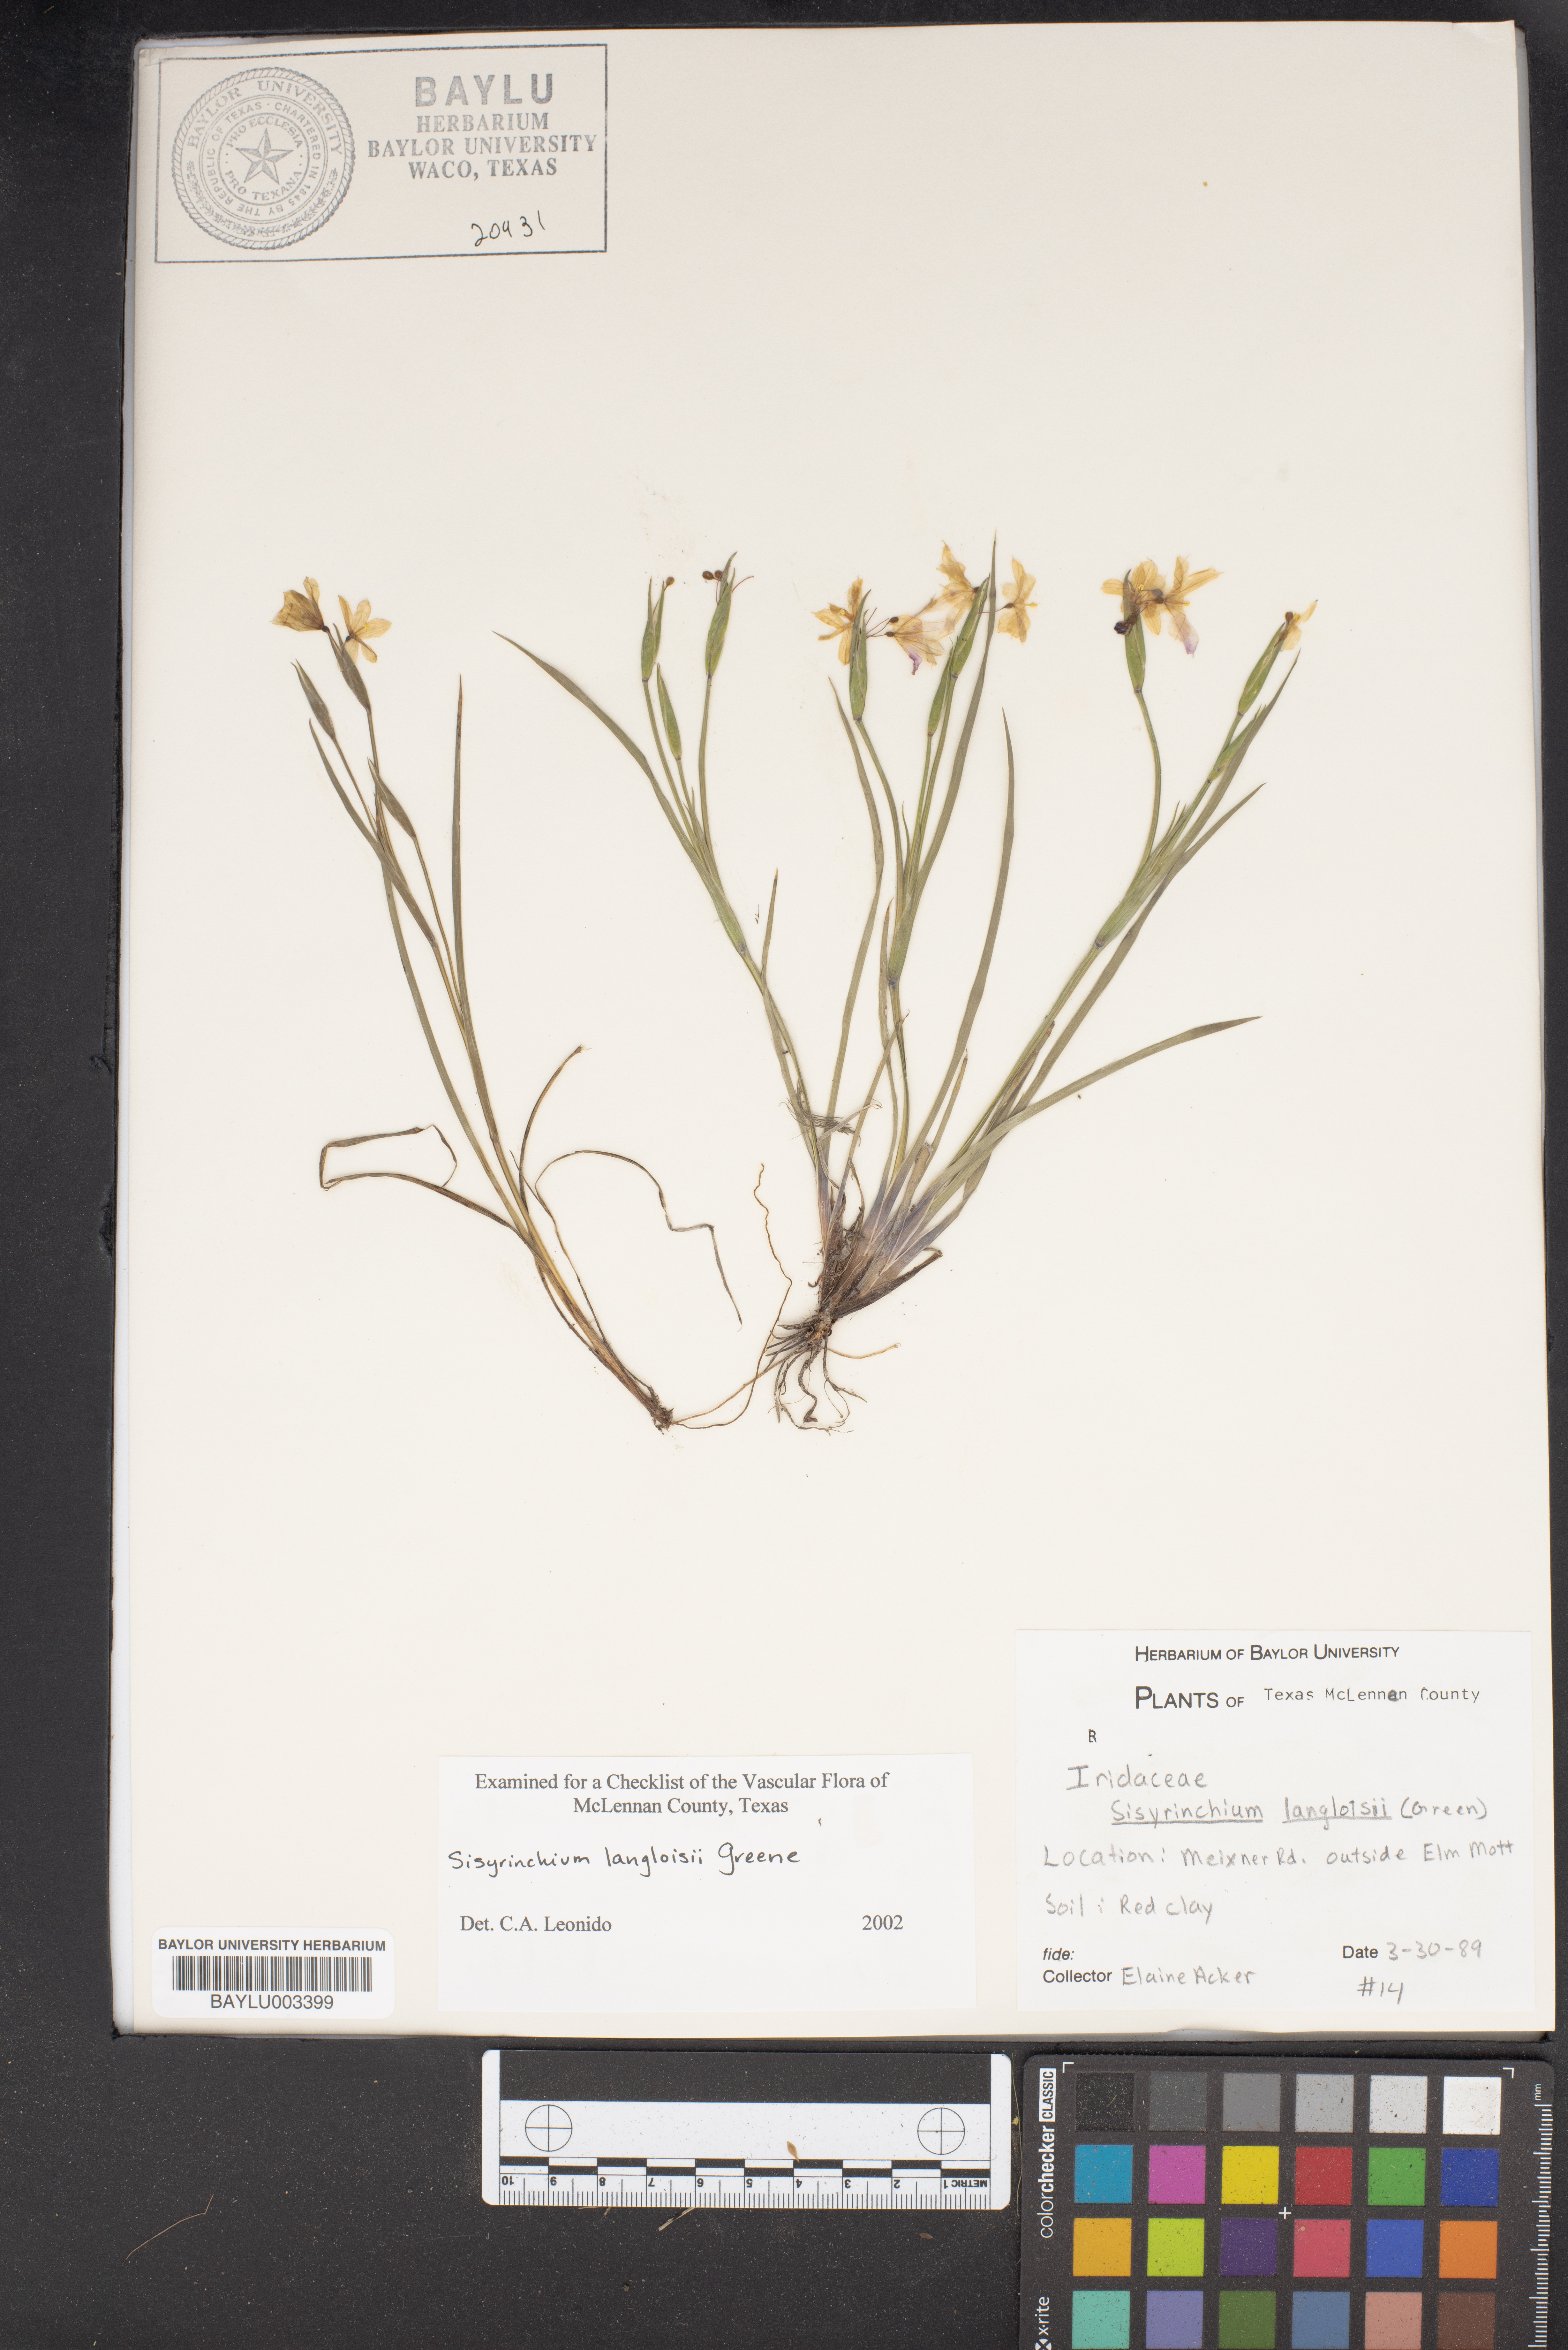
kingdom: Plantae
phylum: Tracheophyta
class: Liliopsida
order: Asparagales
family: Iridaceae
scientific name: Iridaceae
